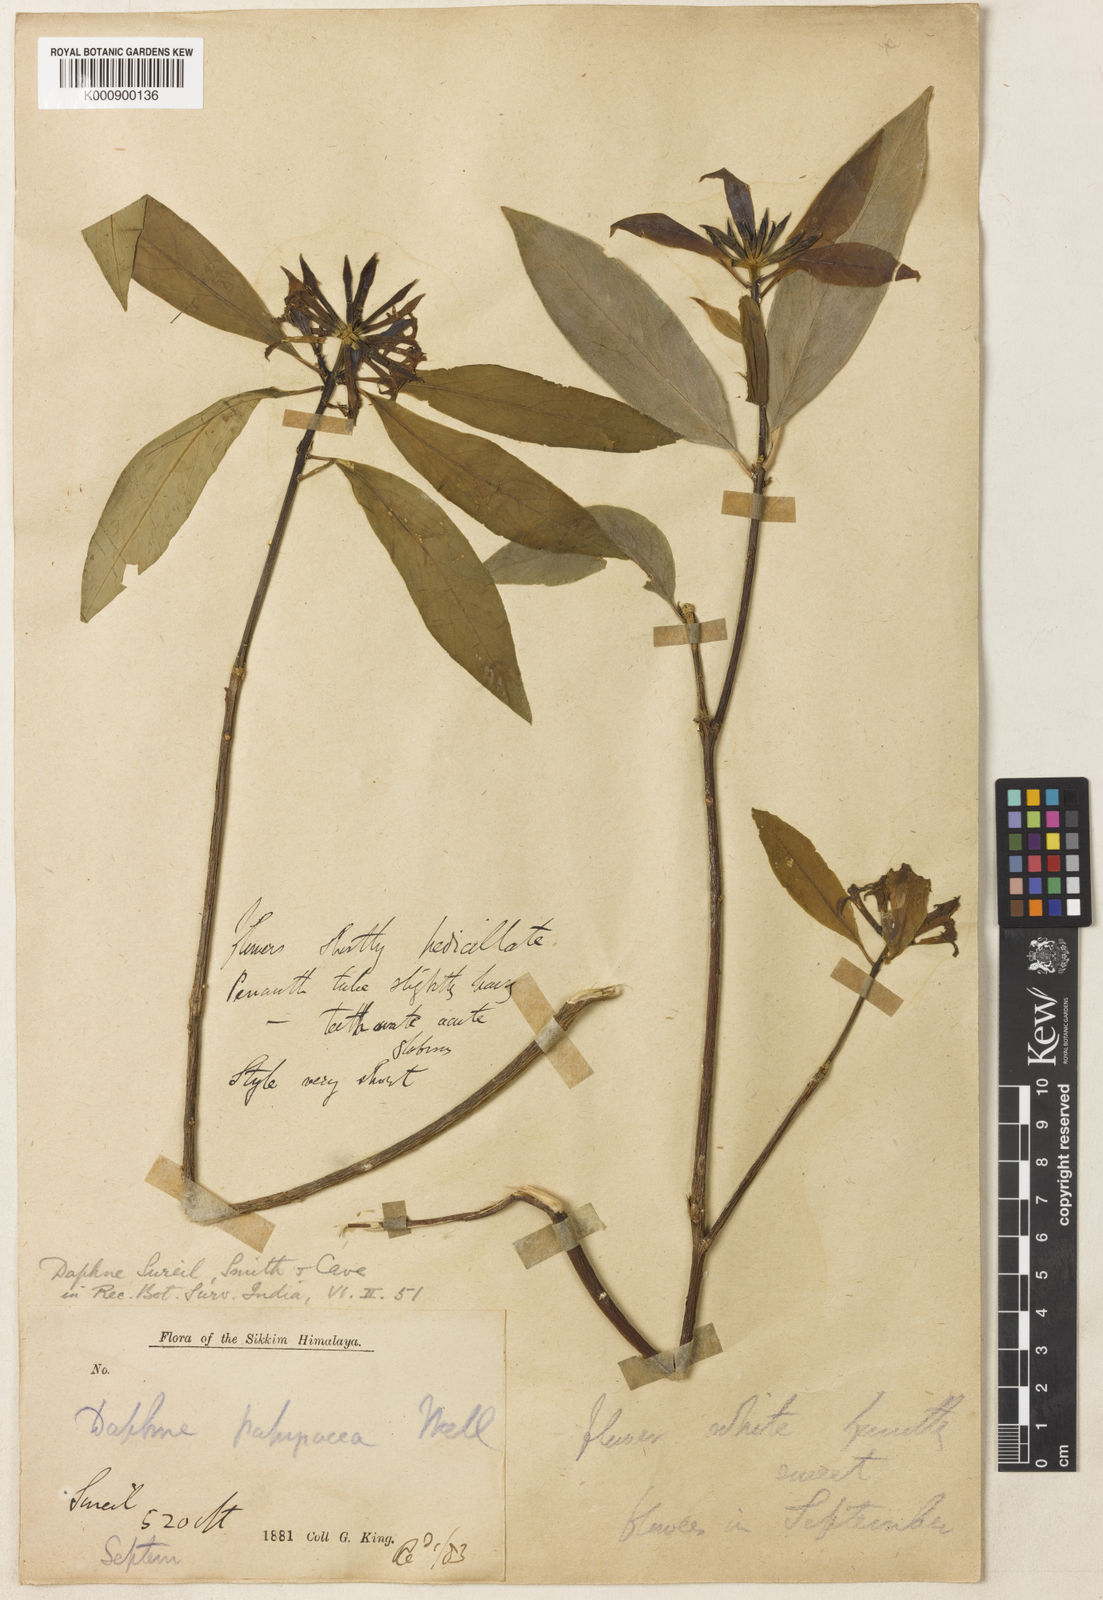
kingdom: Plantae
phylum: Tracheophyta
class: Magnoliopsida
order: Malvales
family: Thymelaeaceae
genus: Daphne
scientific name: Daphne sureil
